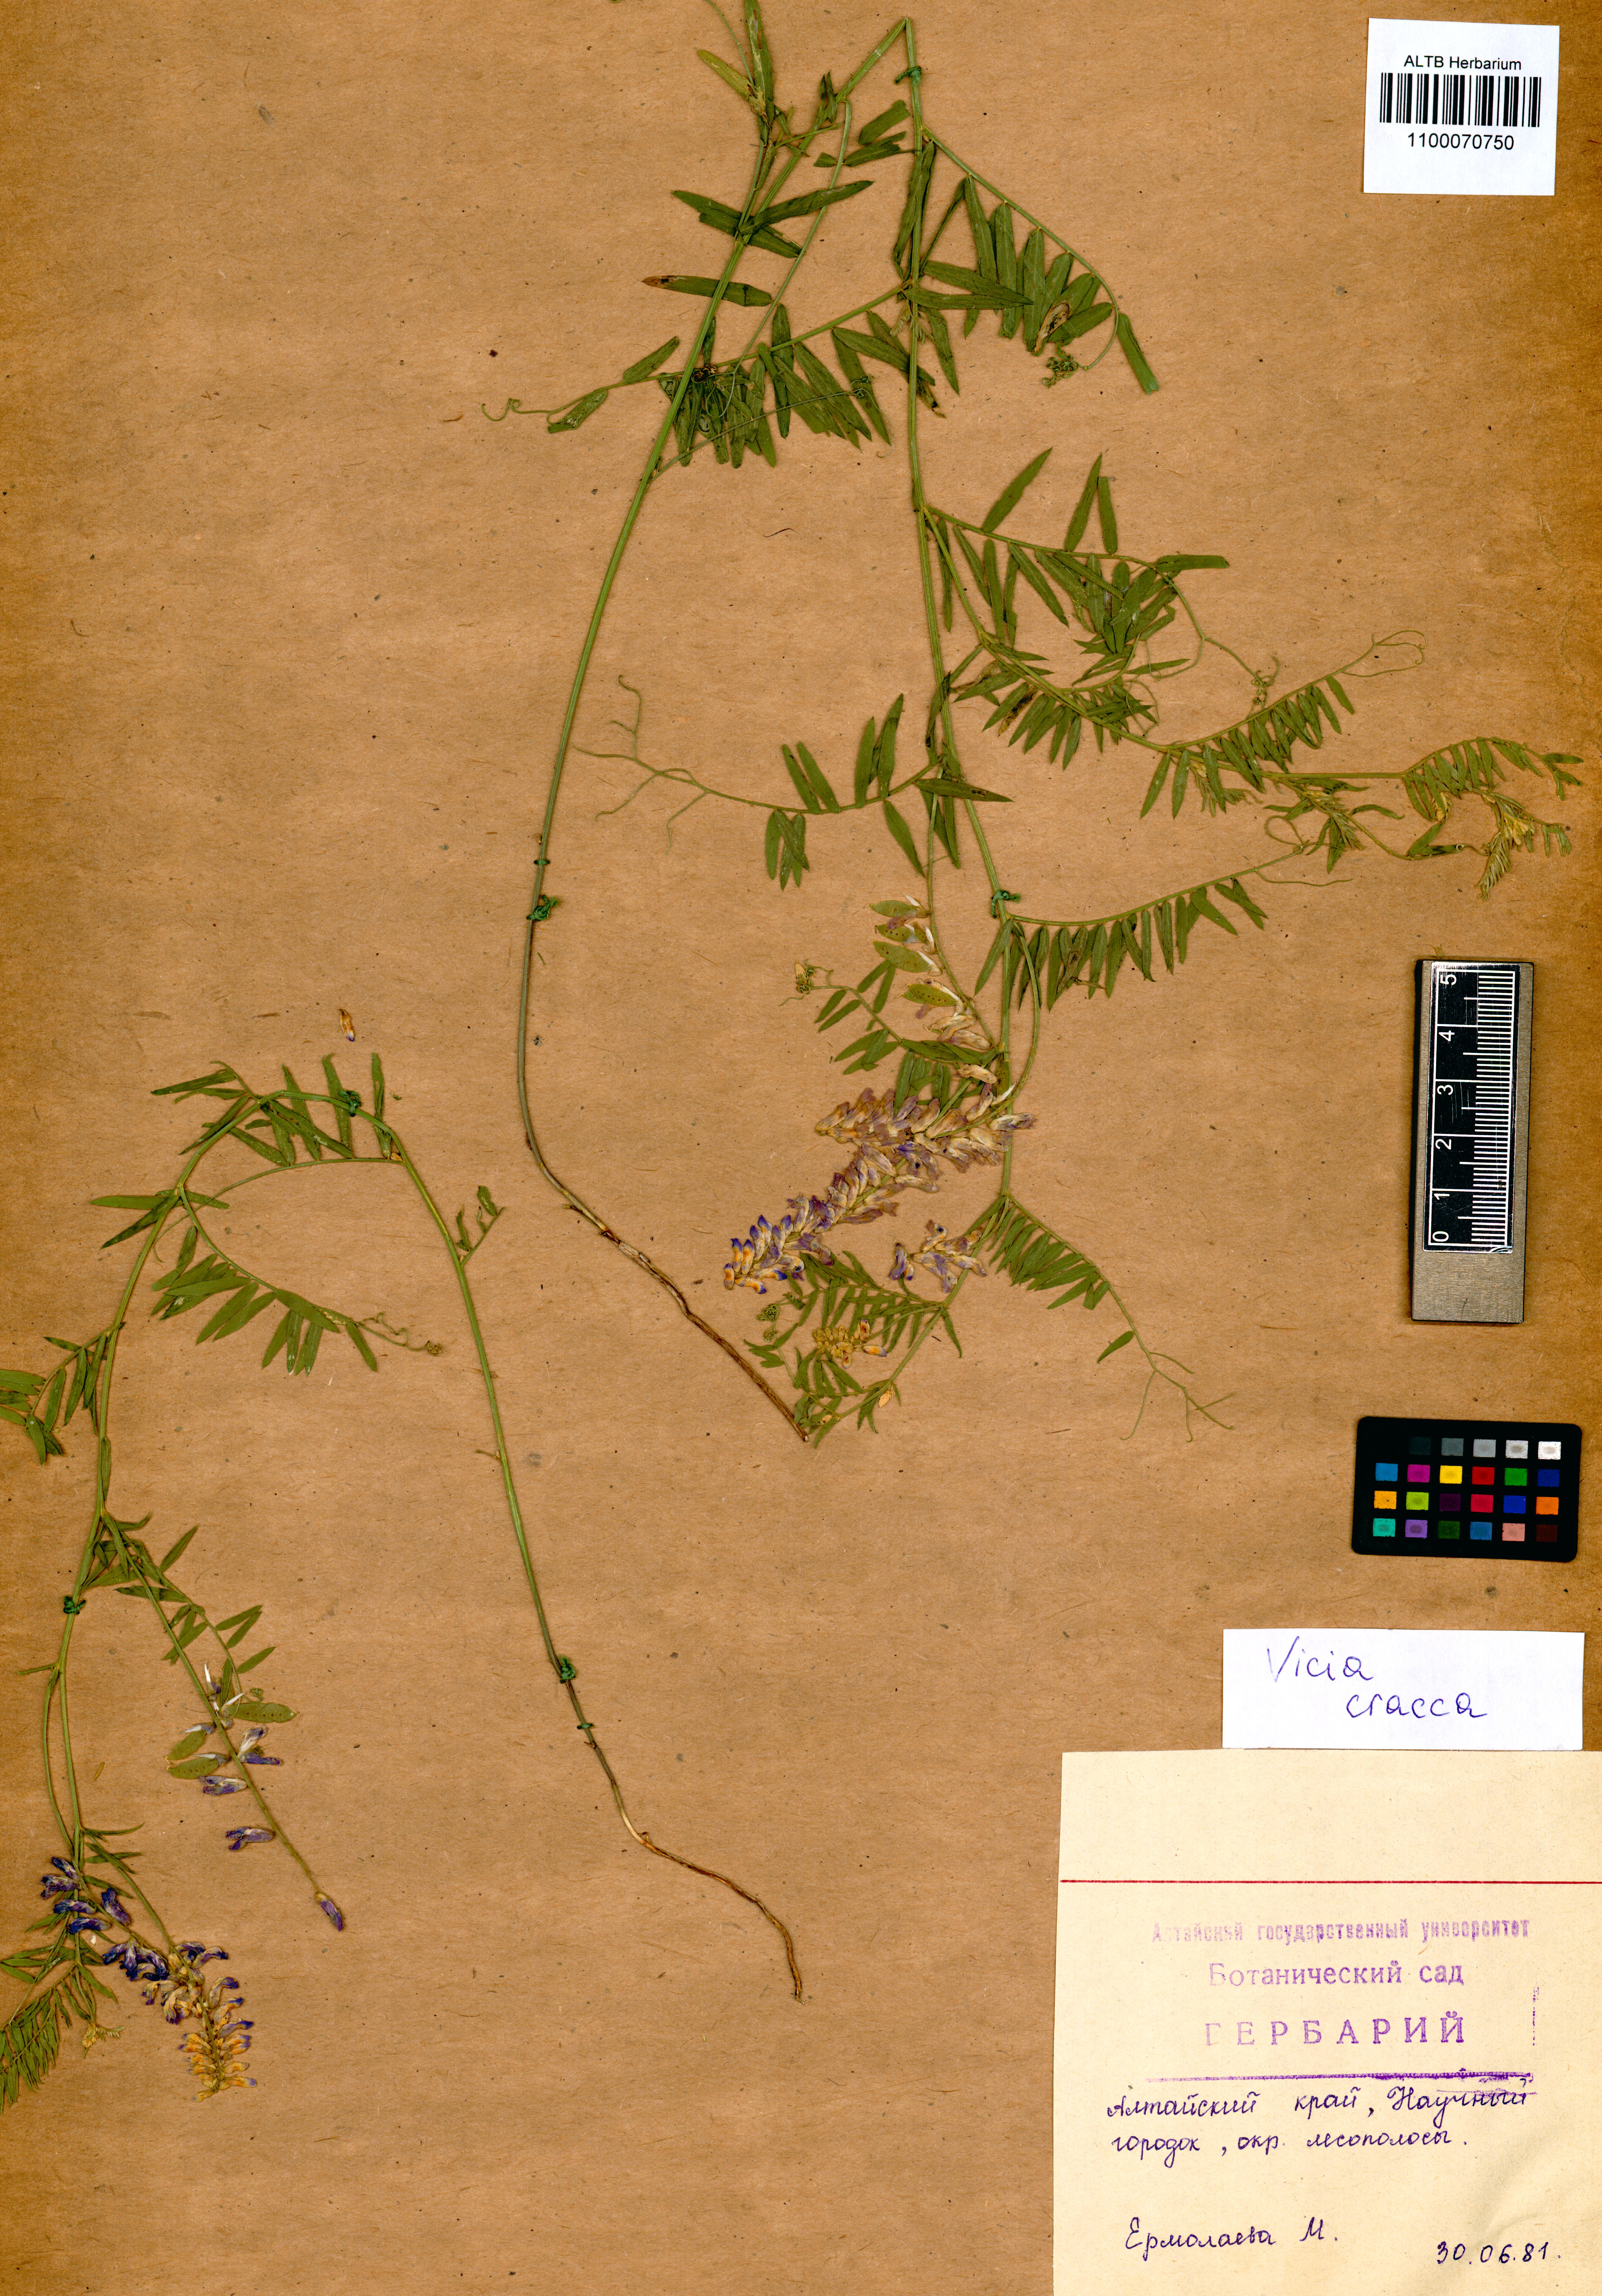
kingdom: Plantae
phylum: Tracheophyta
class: Magnoliopsida
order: Fabales
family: Fabaceae
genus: Vicia
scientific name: Vicia cracca
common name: Bird vetch
